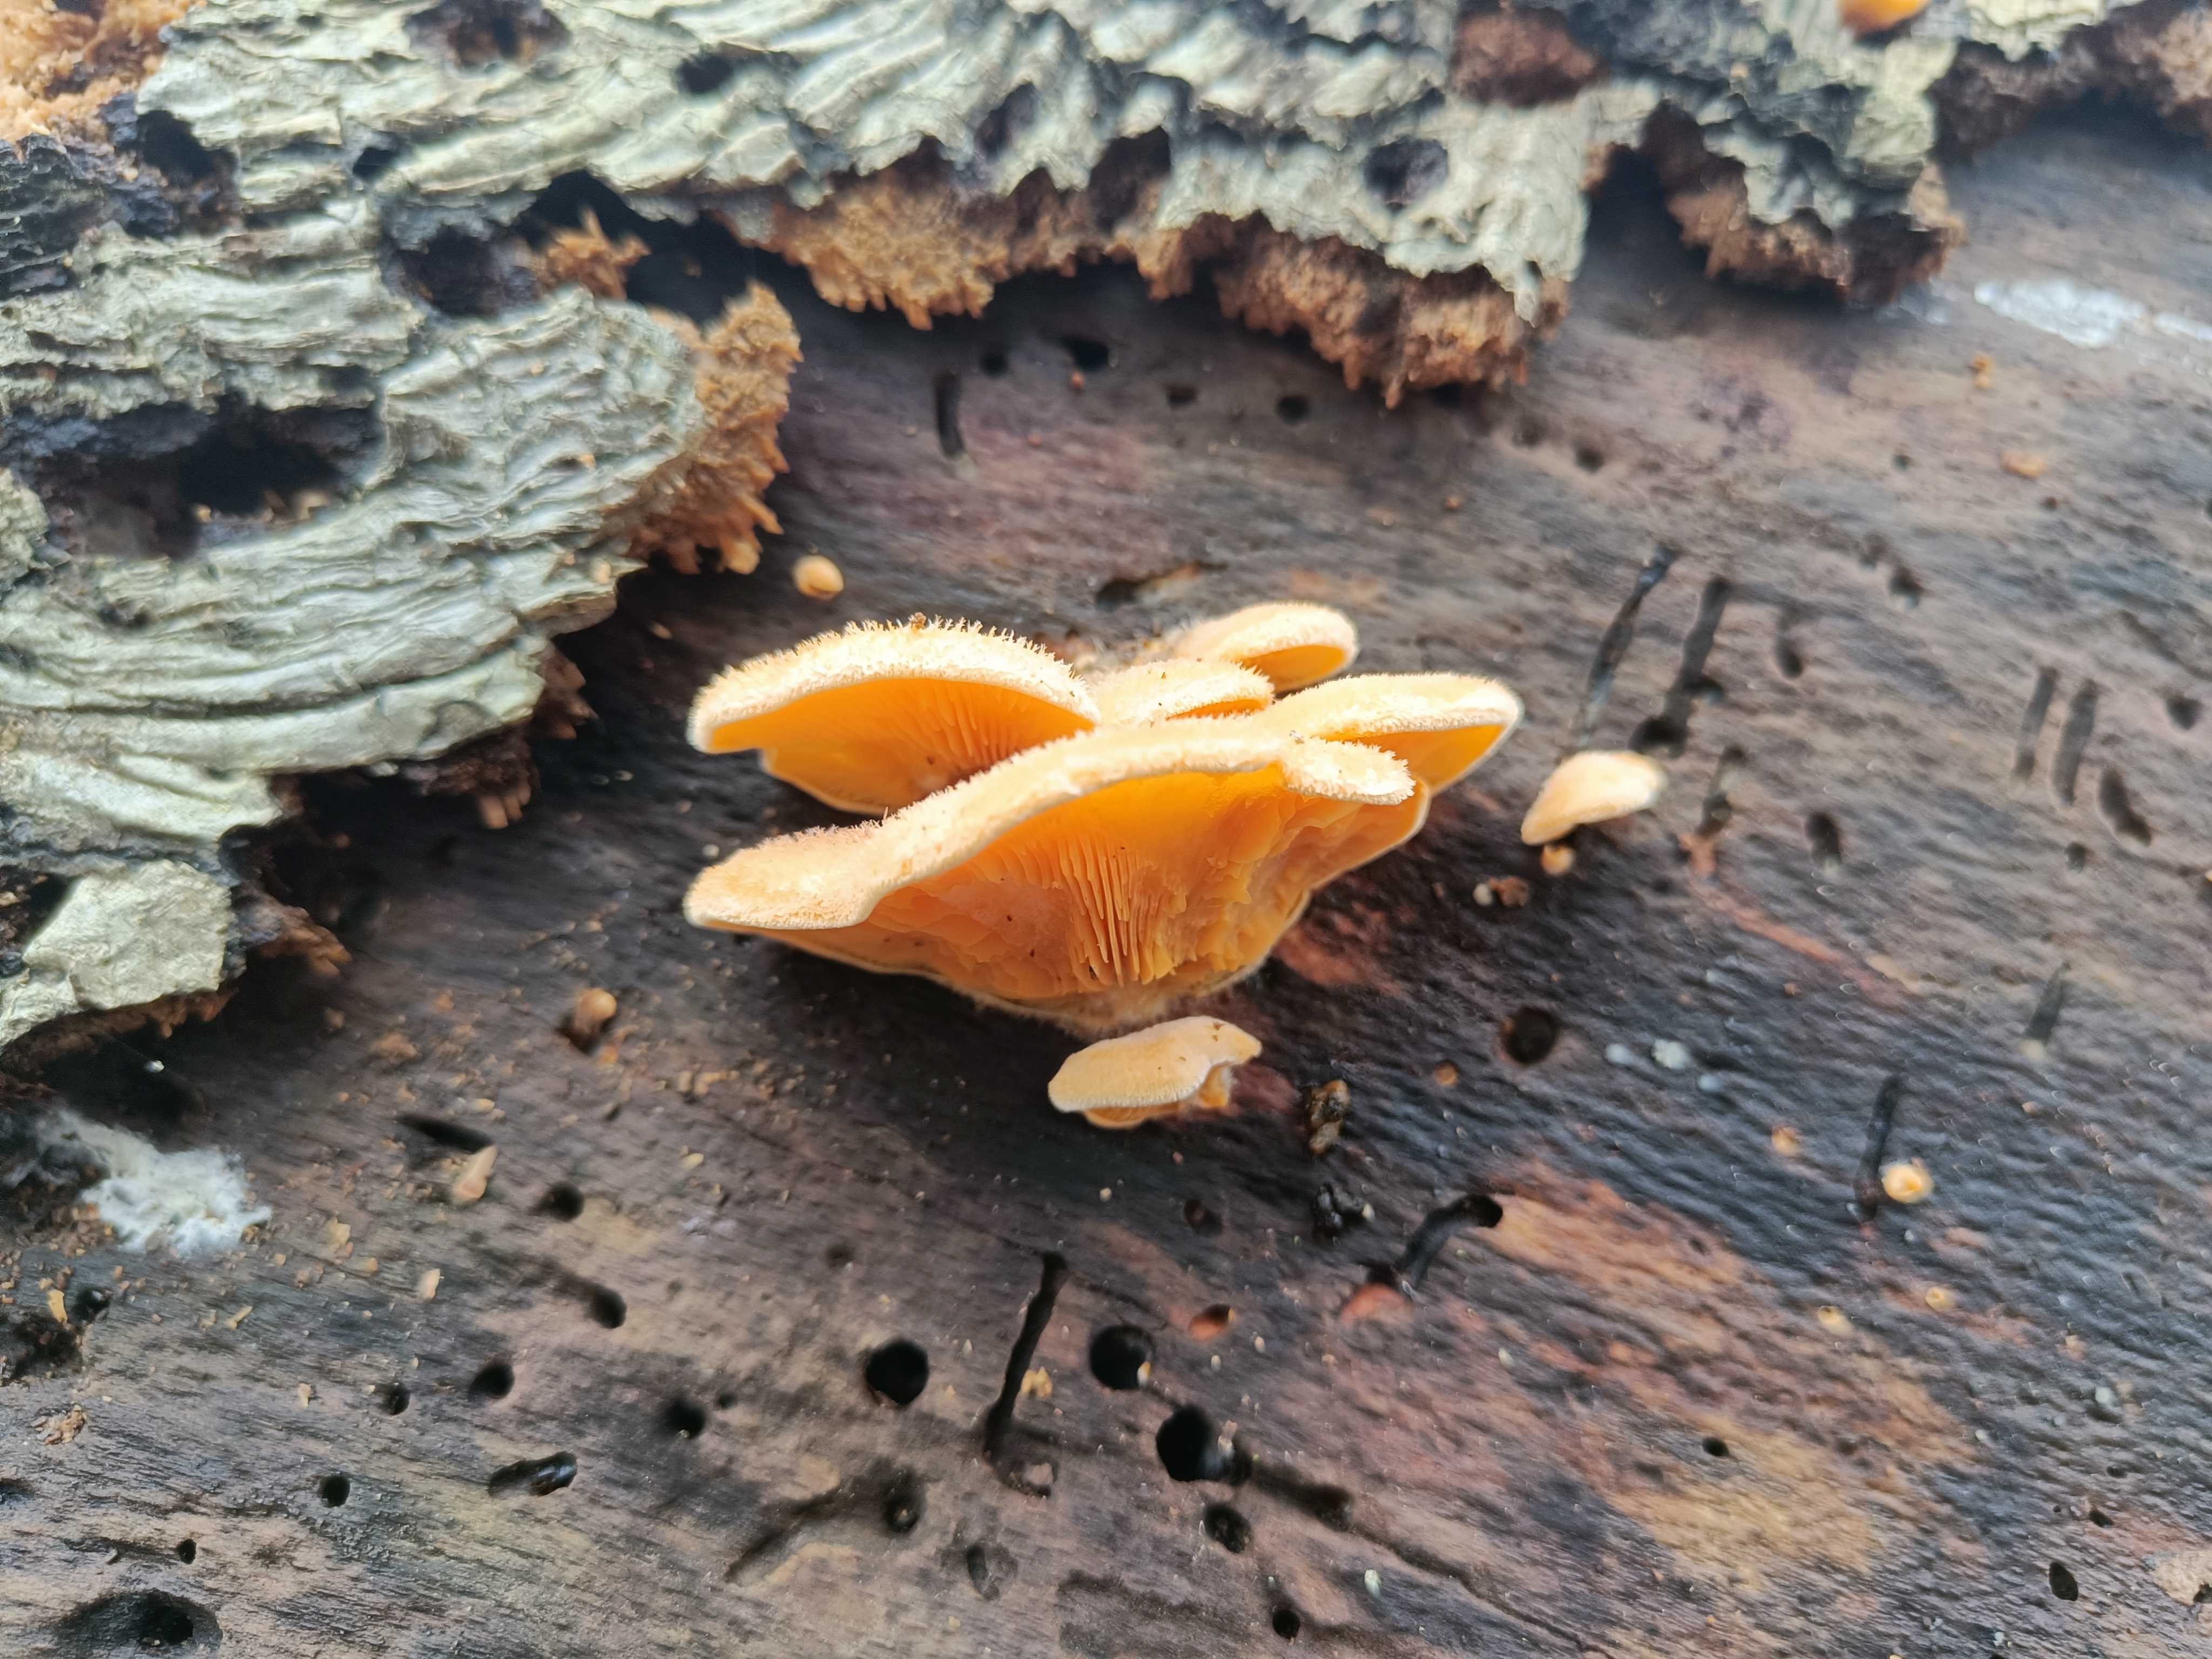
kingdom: Fungi
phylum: Basidiomycota
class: Agaricomycetes
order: Agaricales
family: Phyllotopsidaceae
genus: Phyllotopsis
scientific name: Phyllotopsis nidulans
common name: okkerblad
